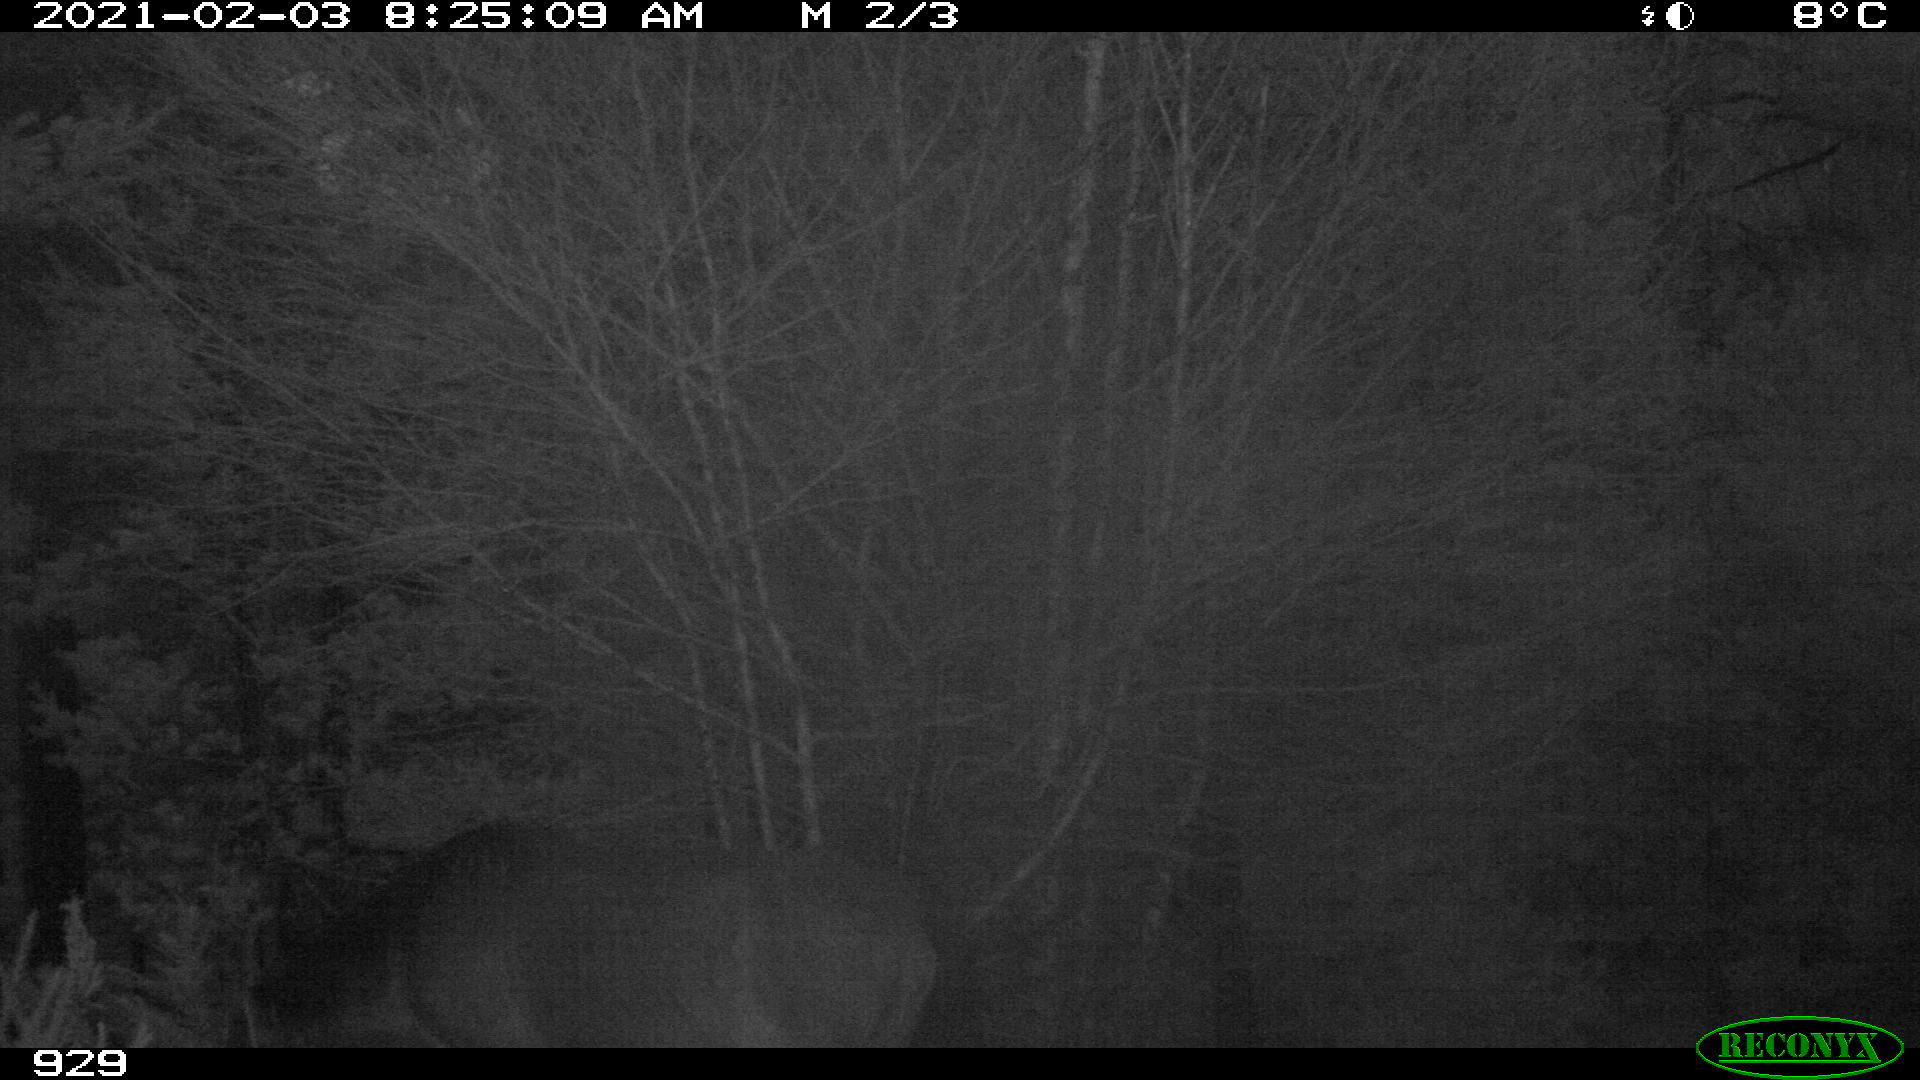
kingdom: Animalia
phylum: Chordata
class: Mammalia
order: Perissodactyla
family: Equidae
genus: Equus
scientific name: Equus caballus
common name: Horse
